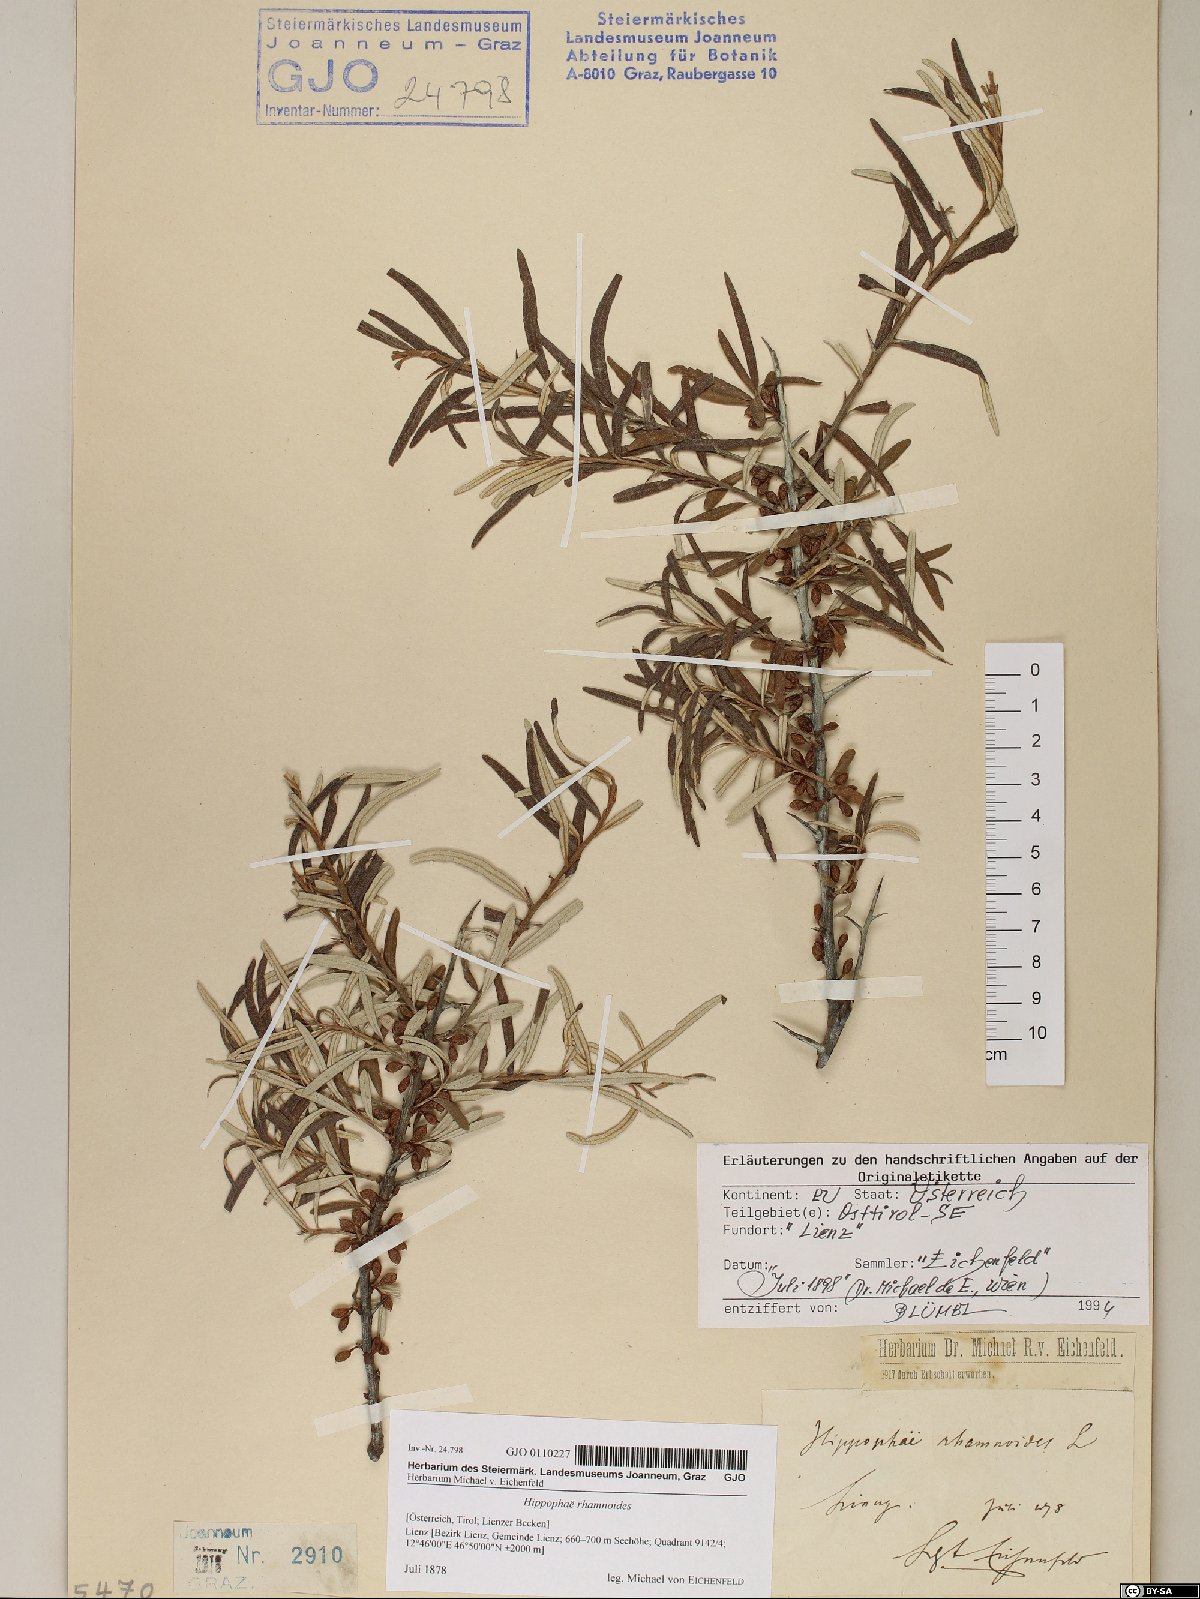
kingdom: Plantae
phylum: Tracheophyta
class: Magnoliopsida
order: Rosales
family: Elaeagnaceae
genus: Hippophae
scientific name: Hippophae rhamnoides
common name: Sea-buckthorn
